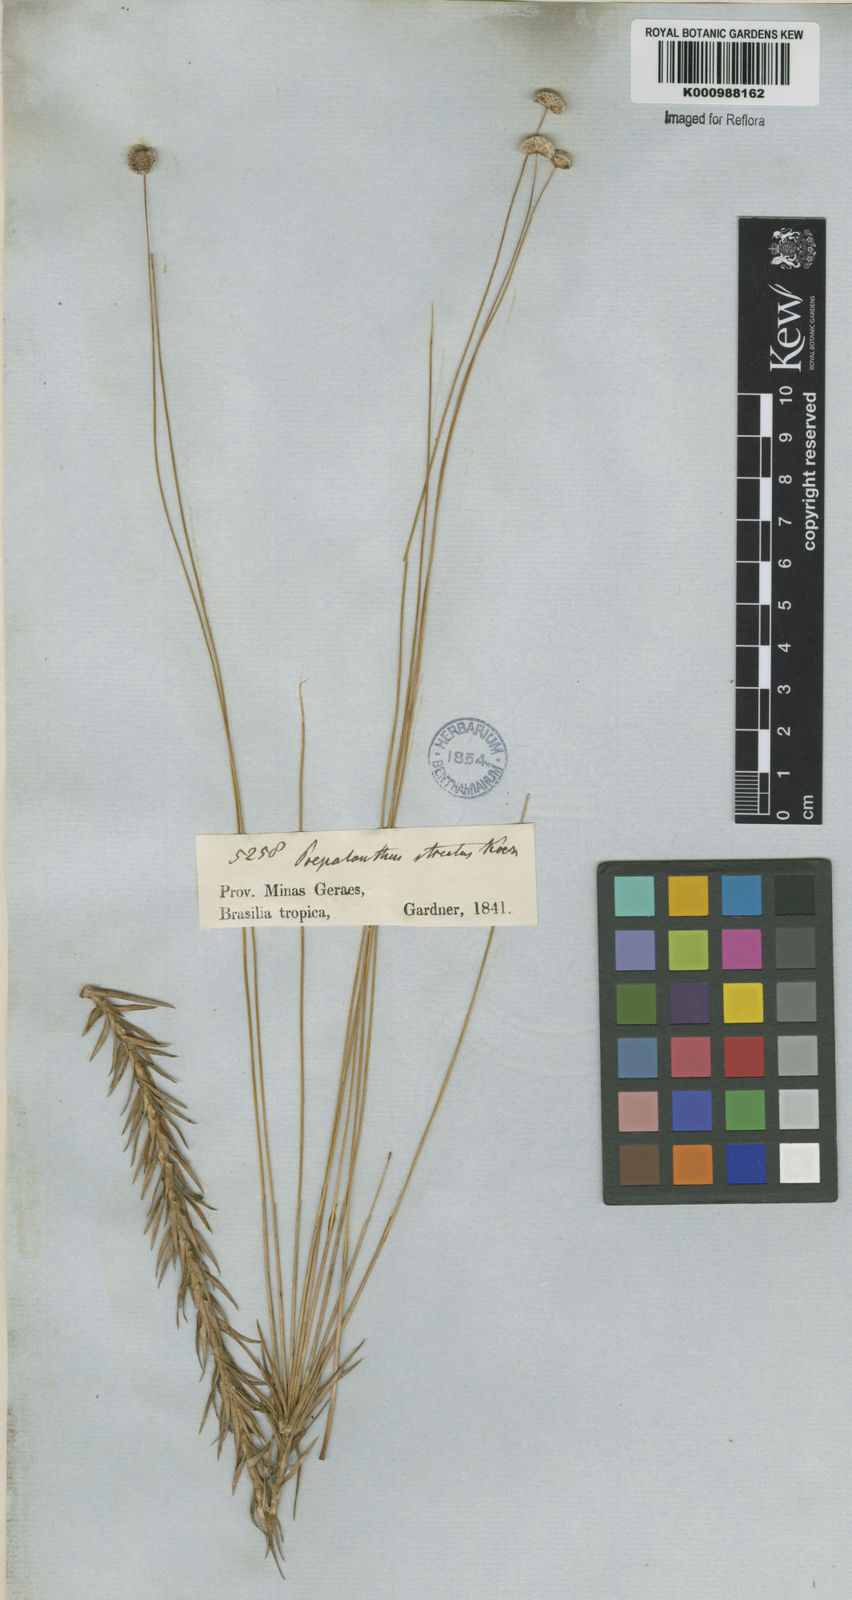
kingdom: Plantae
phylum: Tracheophyta
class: Liliopsida
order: Poales
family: Eriocaulaceae
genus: Paepalanthus
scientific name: Paepalanthus
